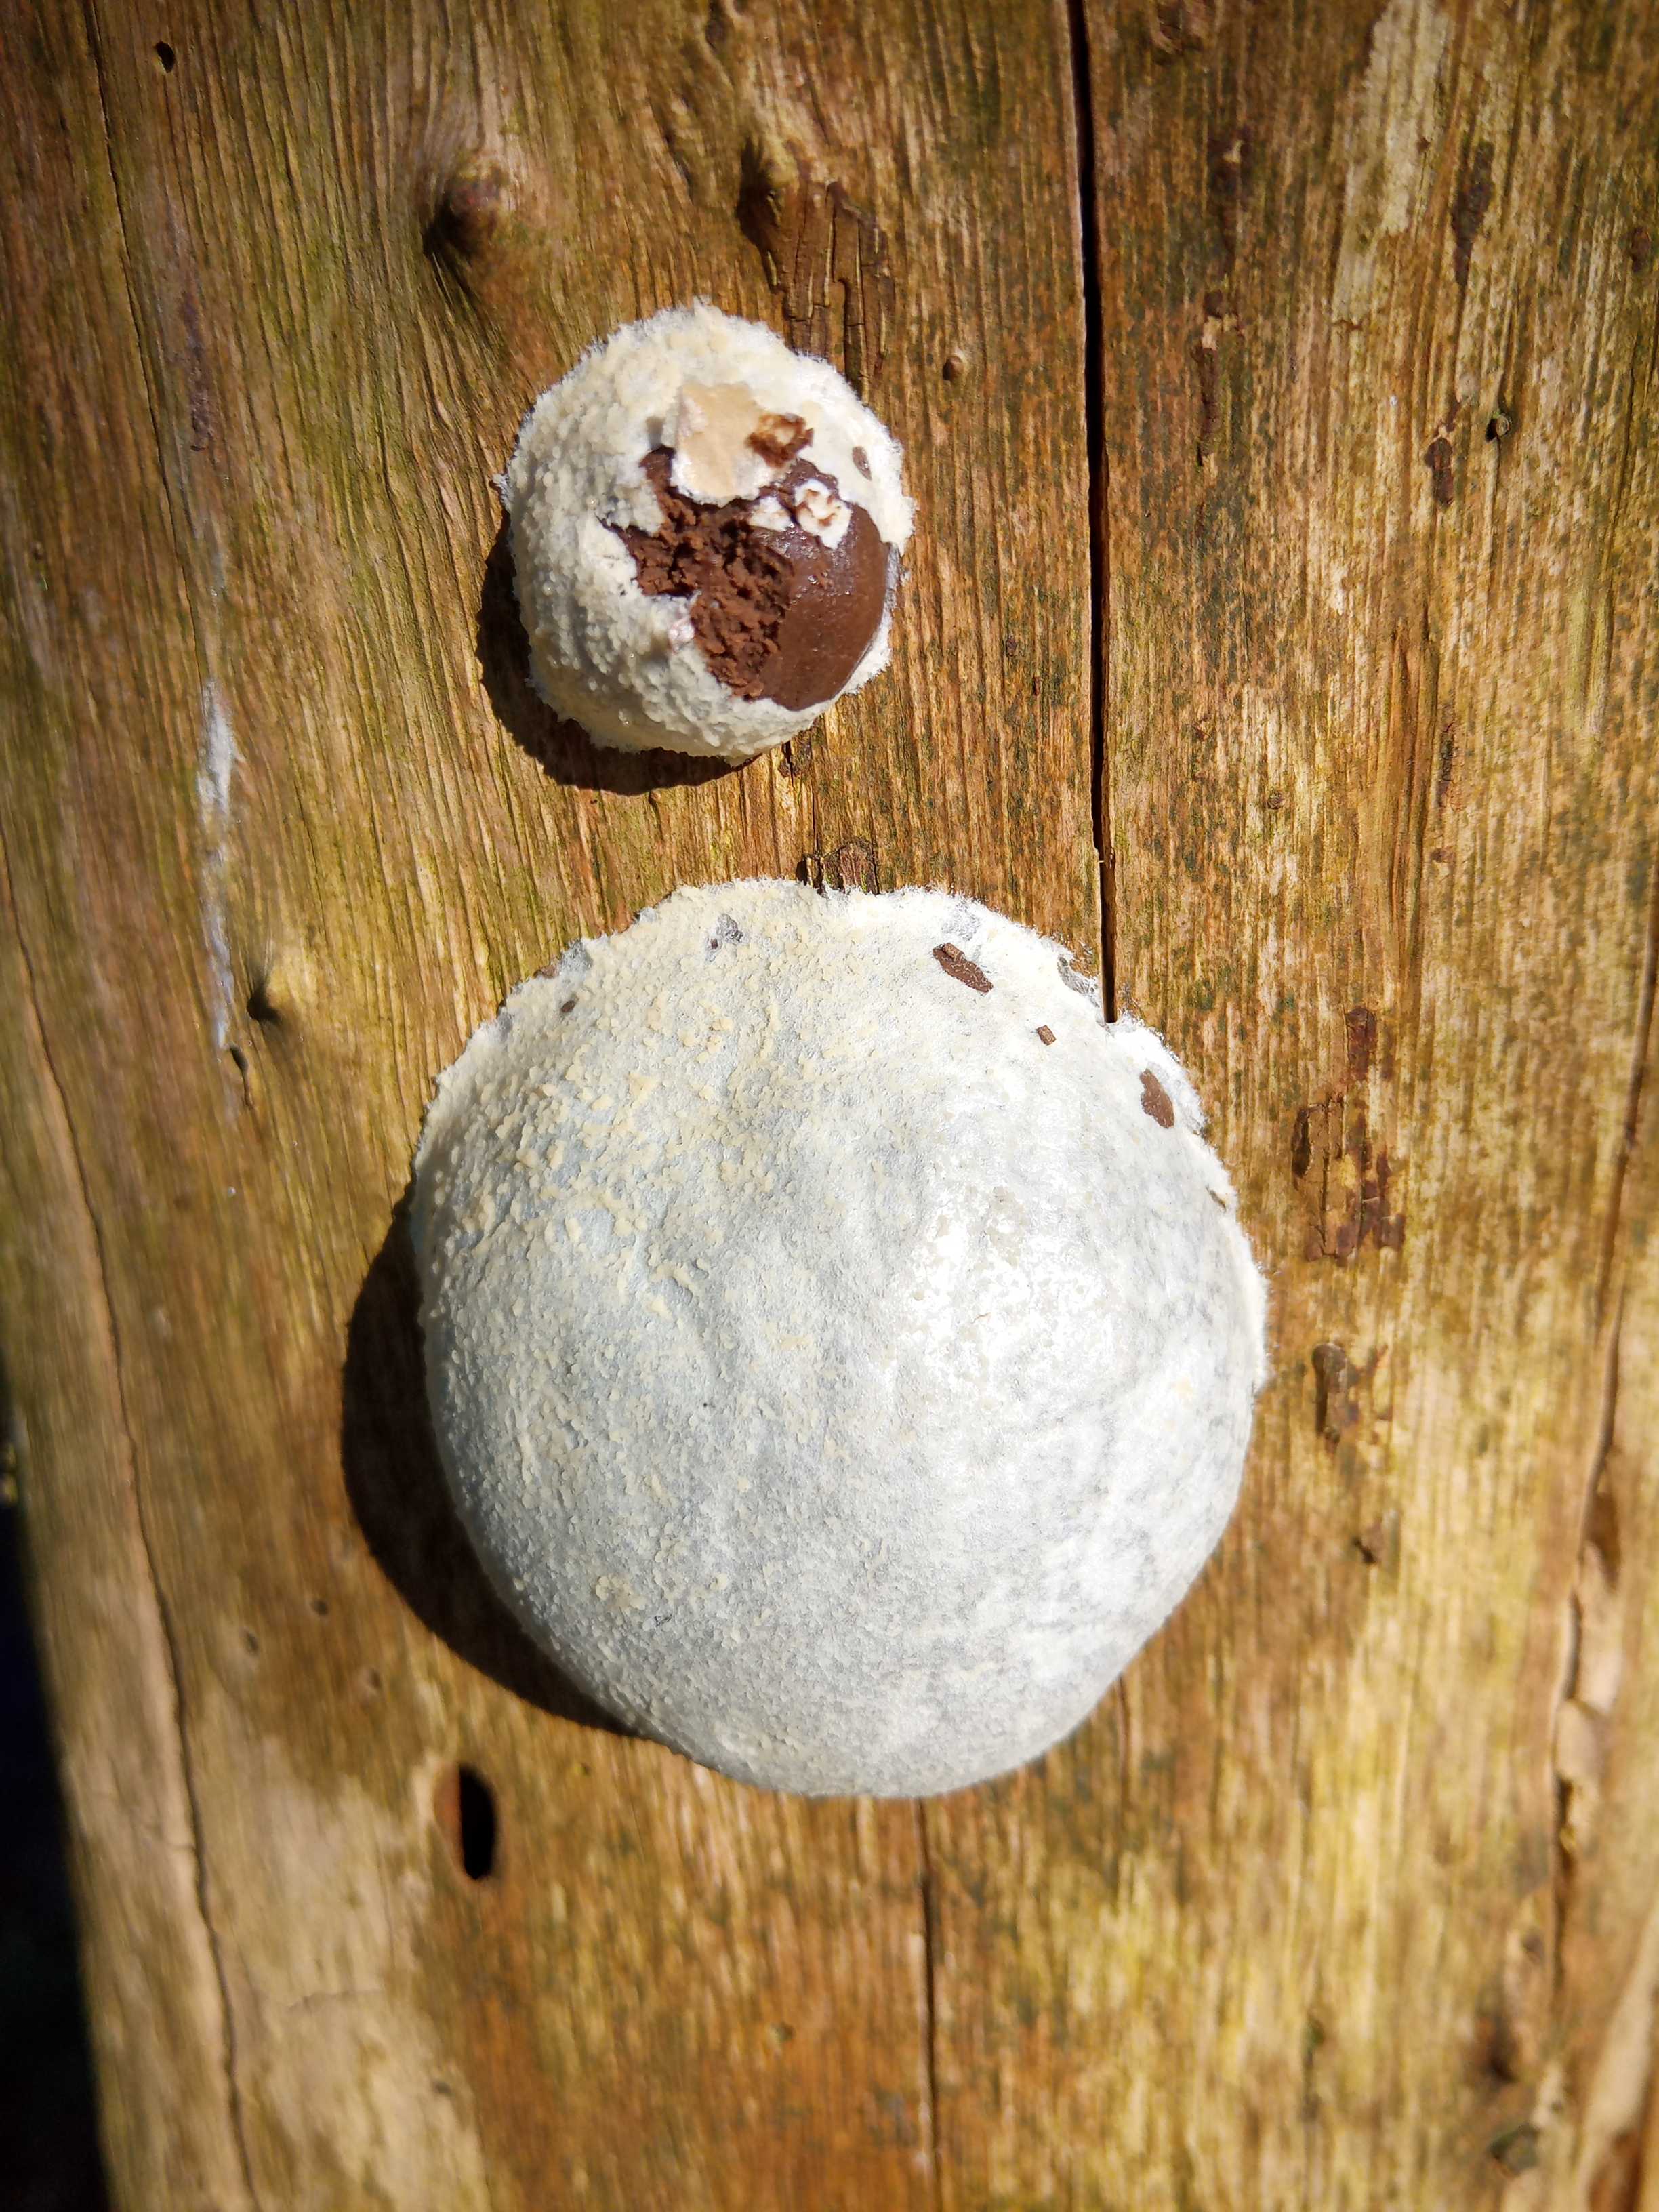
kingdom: Protozoa
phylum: Mycetozoa
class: Myxomycetes
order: Cribrariales
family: Tubiferaceae
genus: Reticularia
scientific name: Reticularia lycoperdon
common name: skinnende støvpude
